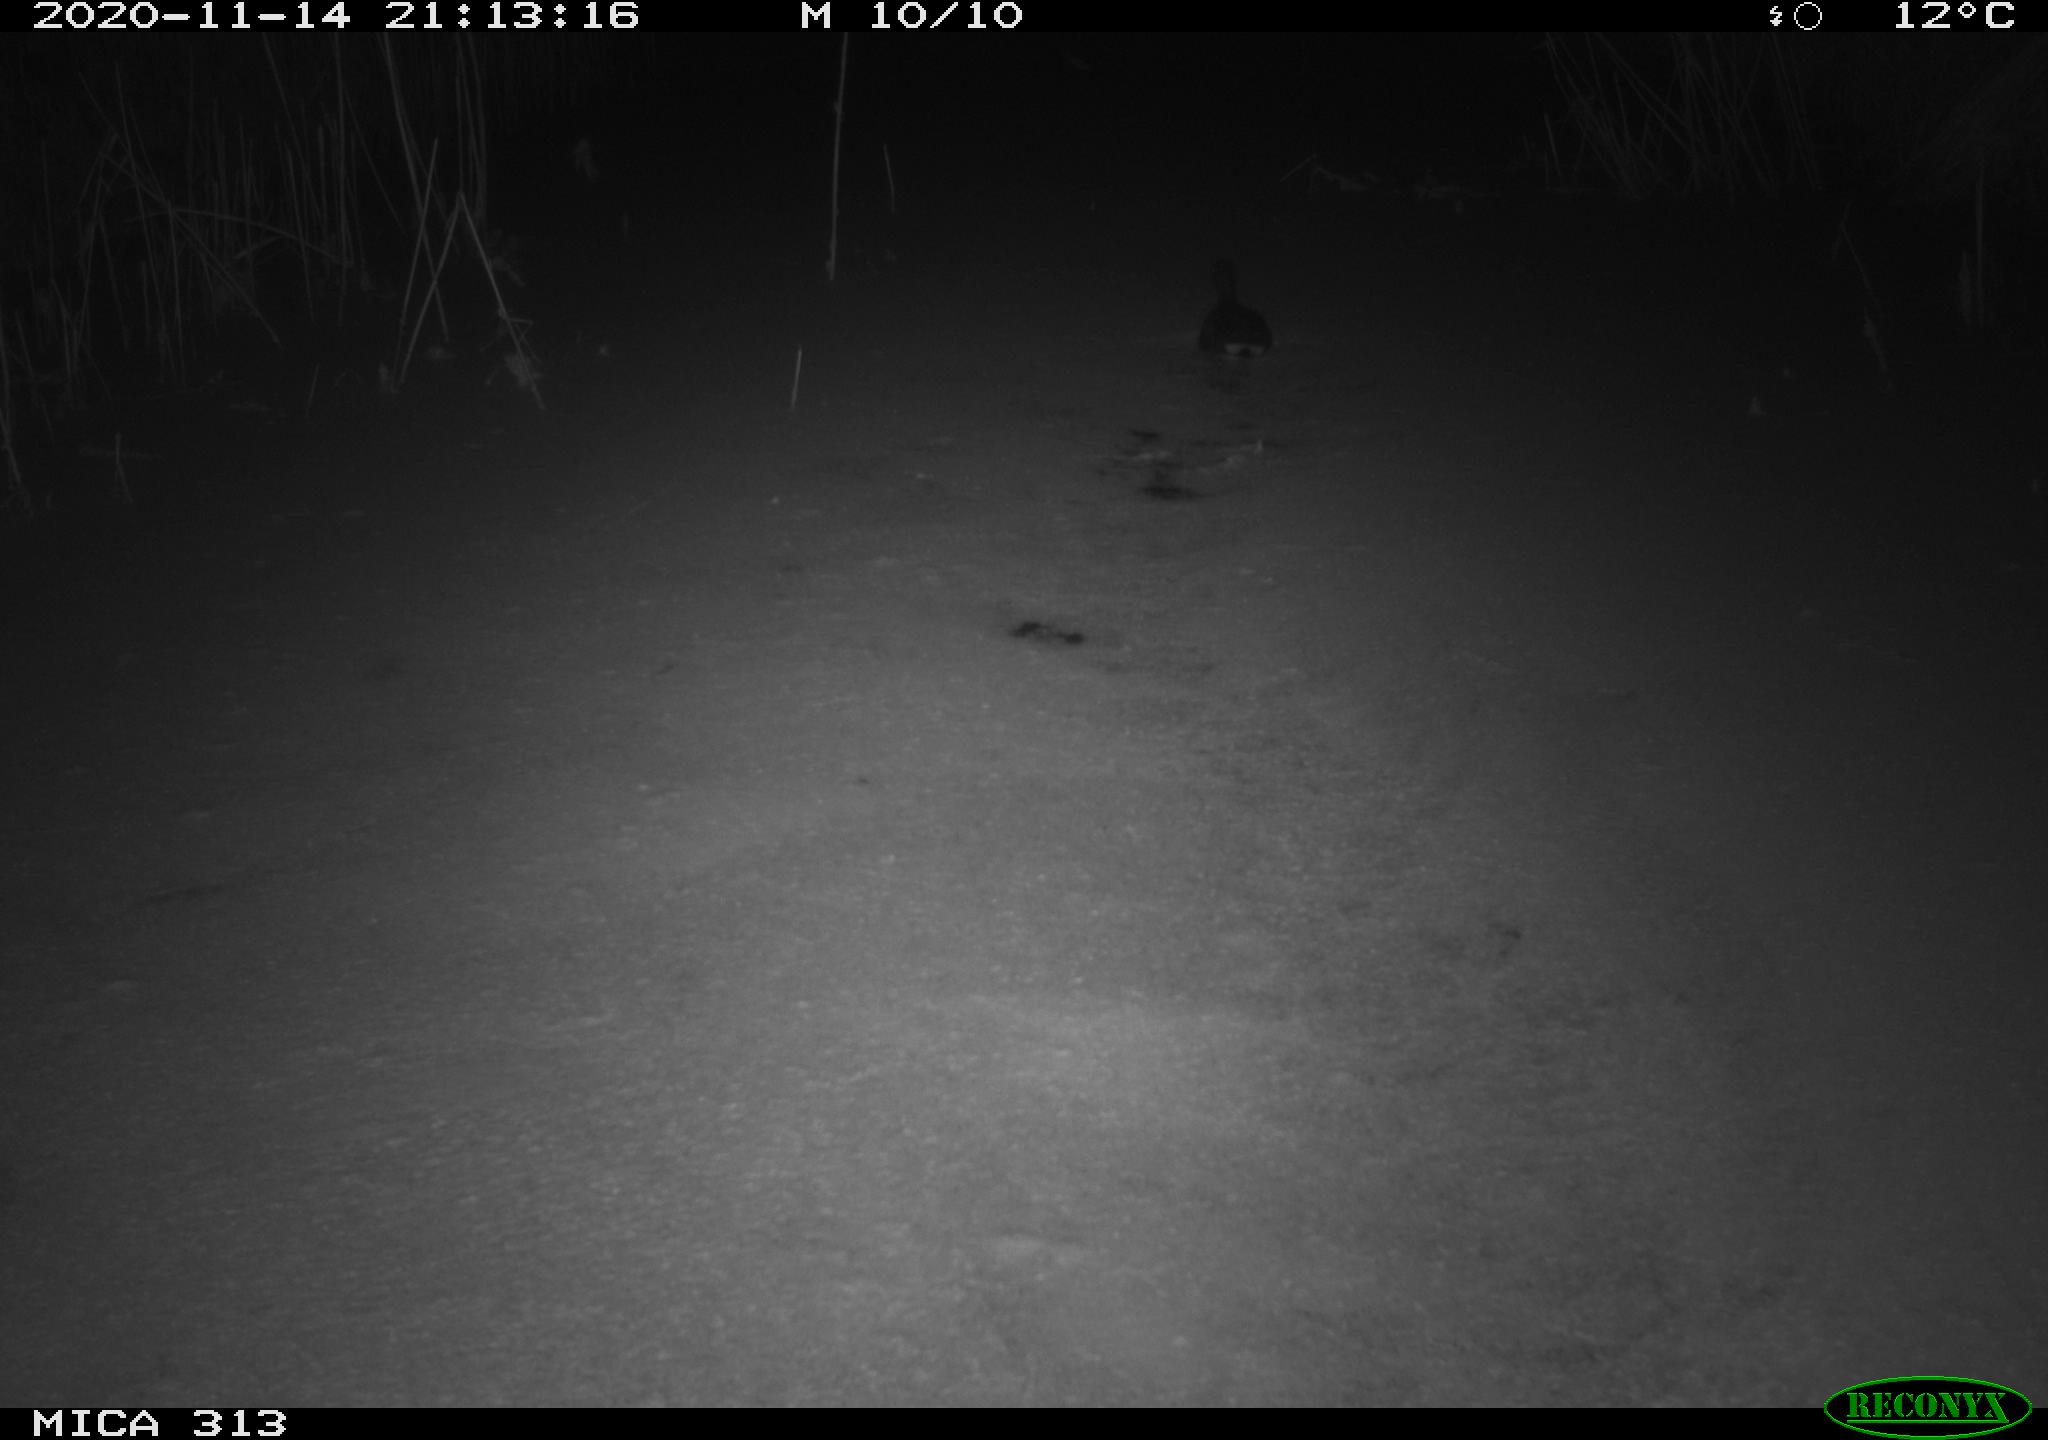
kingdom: Animalia
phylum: Chordata
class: Aves
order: Gruiformes
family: Rallidae
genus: Gallinula
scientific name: Gallinula chloropus
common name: Common moorhen
